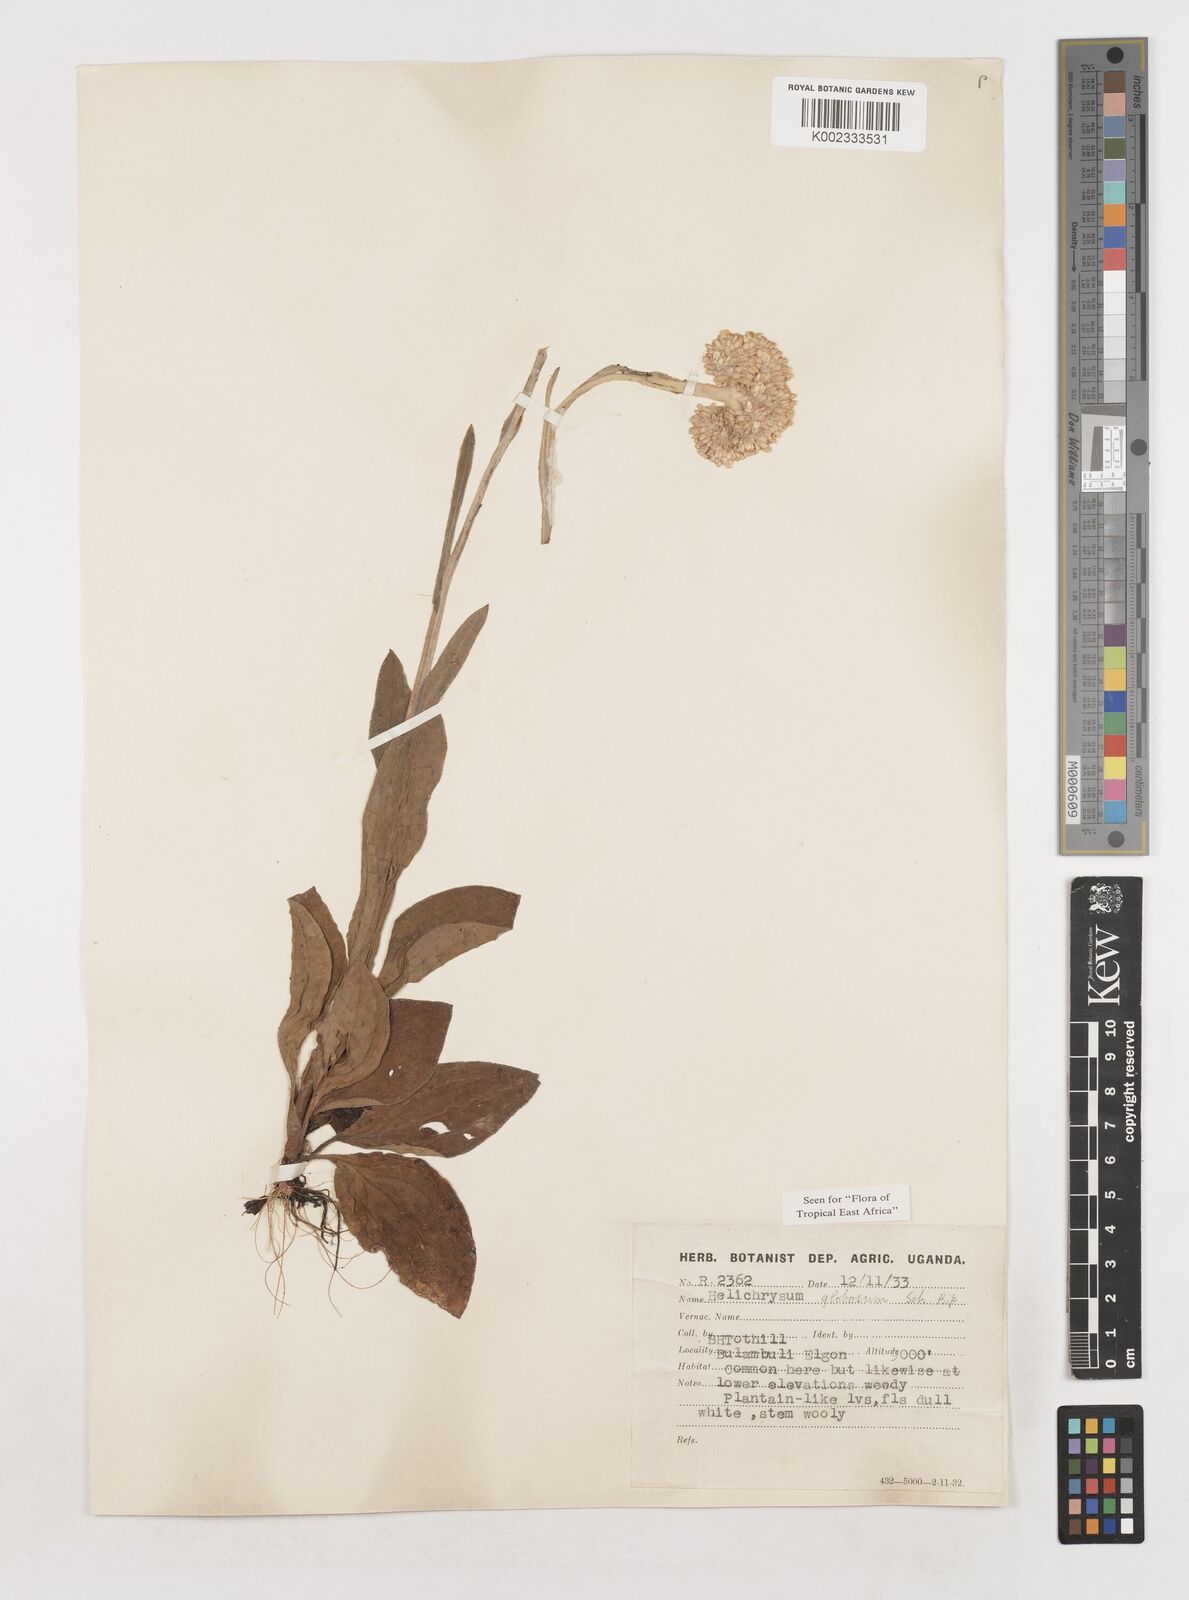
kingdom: Plantae
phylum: Tracheophyta
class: Magnoliopsida
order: Asterales
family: Asteraceae
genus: Helichrysum
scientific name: Helichrysum globosum
